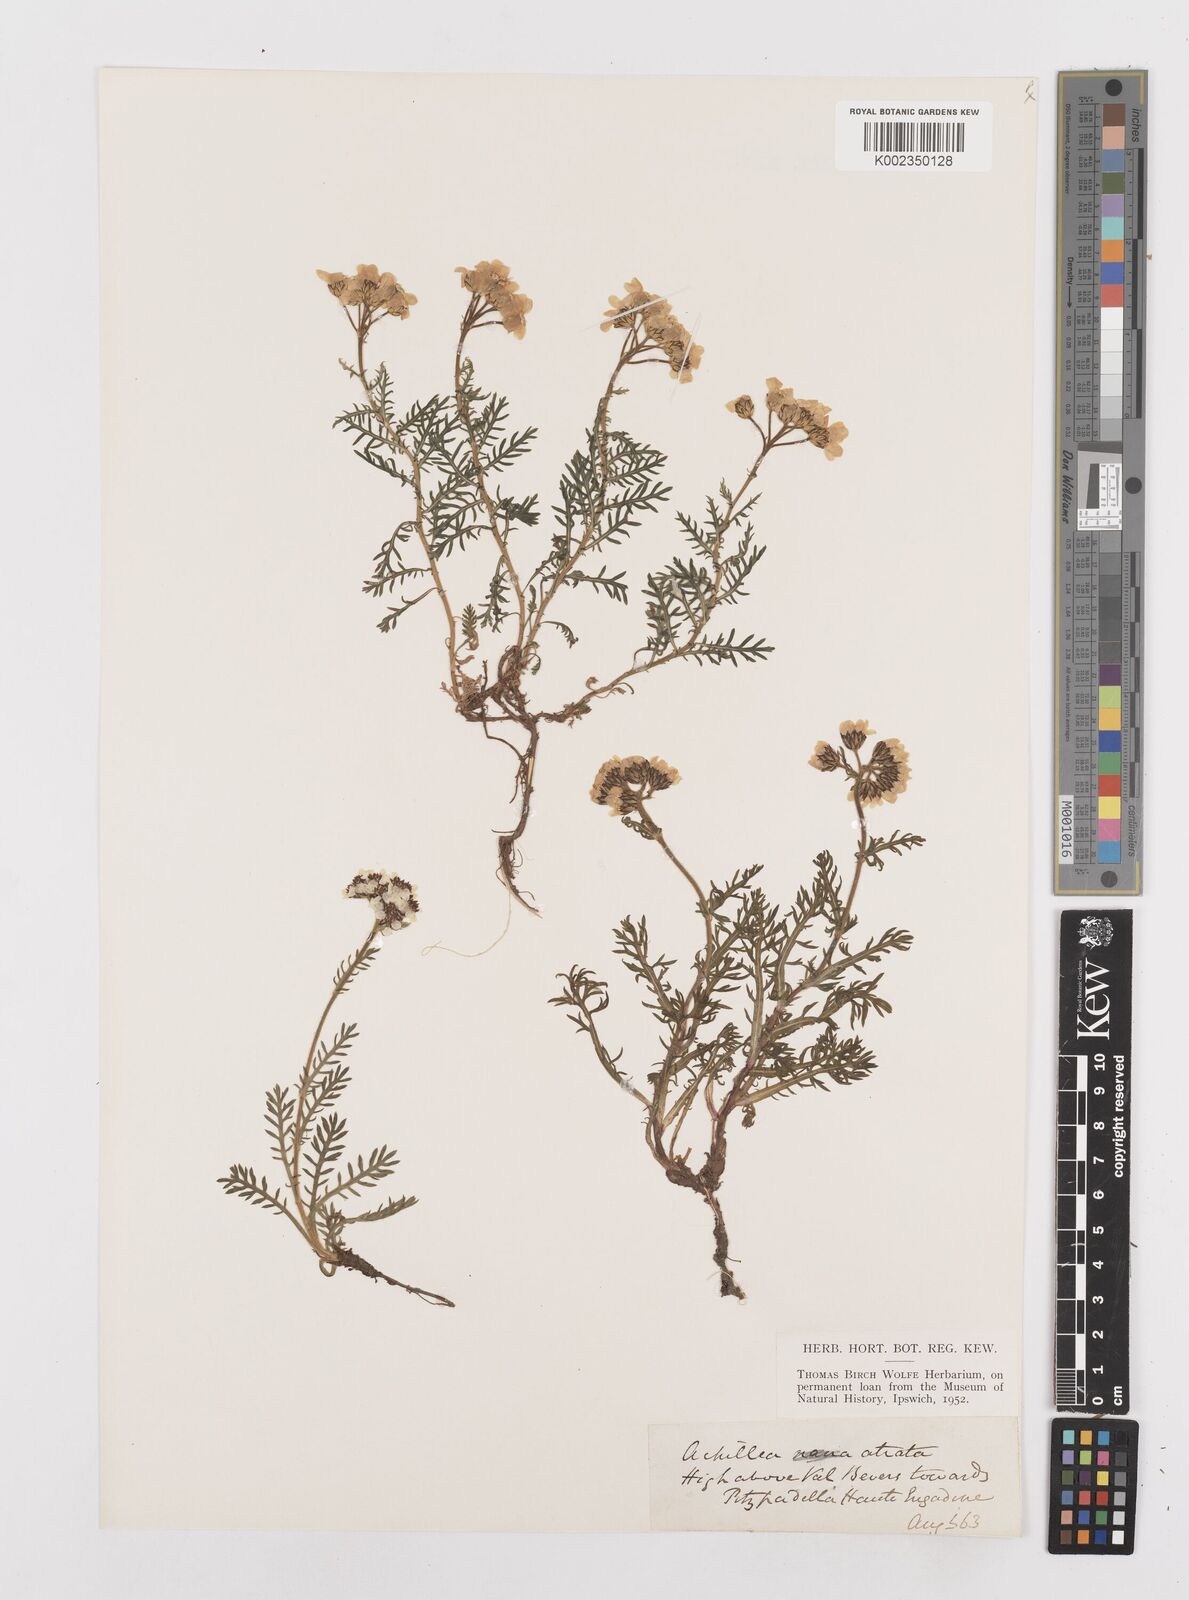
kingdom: Plantae
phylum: Tracheophyta
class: Magnoliopsida
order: Asterales
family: Asteraceae
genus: Achillea
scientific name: Achillea atrata
